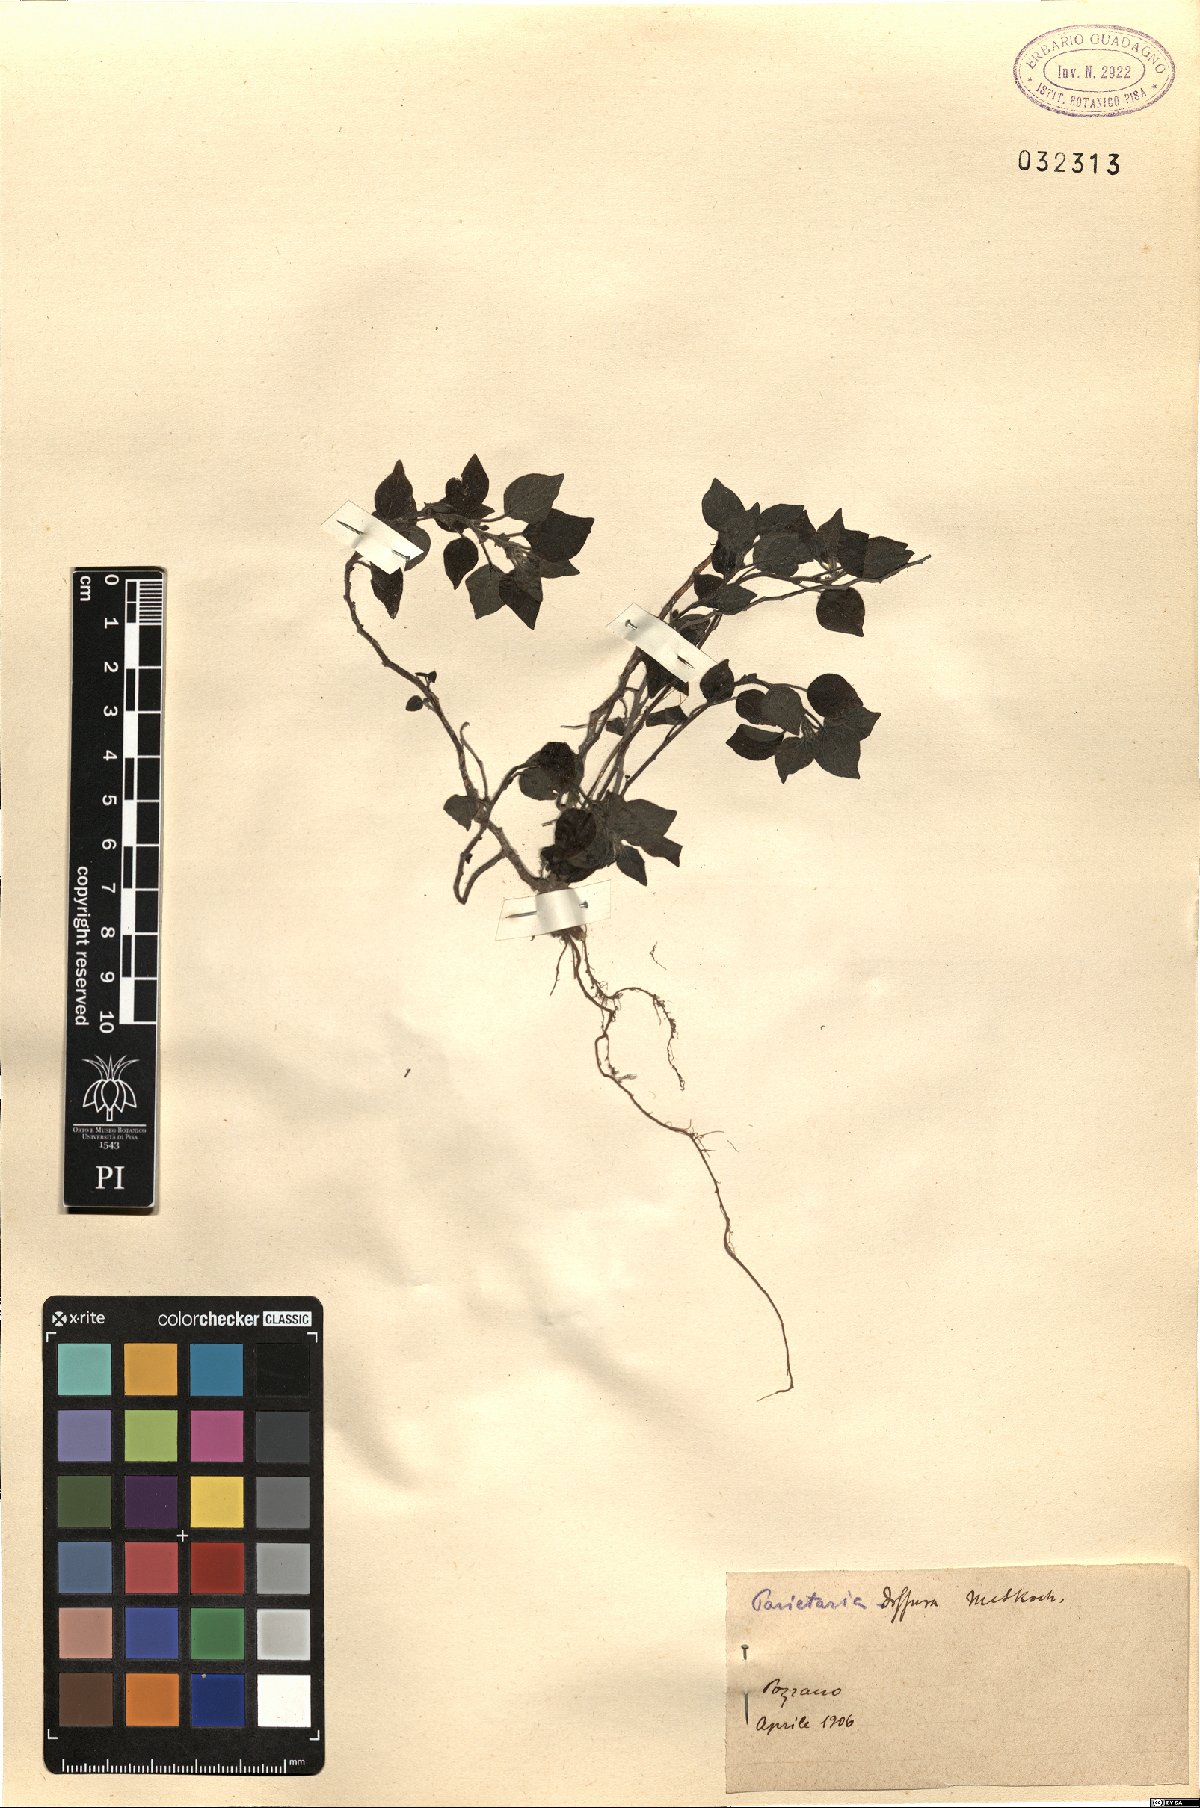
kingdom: Plantae
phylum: Tracheophyta
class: Magnoliopsida
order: Rosales
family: Urticaceae
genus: Parietaria
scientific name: Parietaria judaica
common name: Pellitory-of-the-wall
